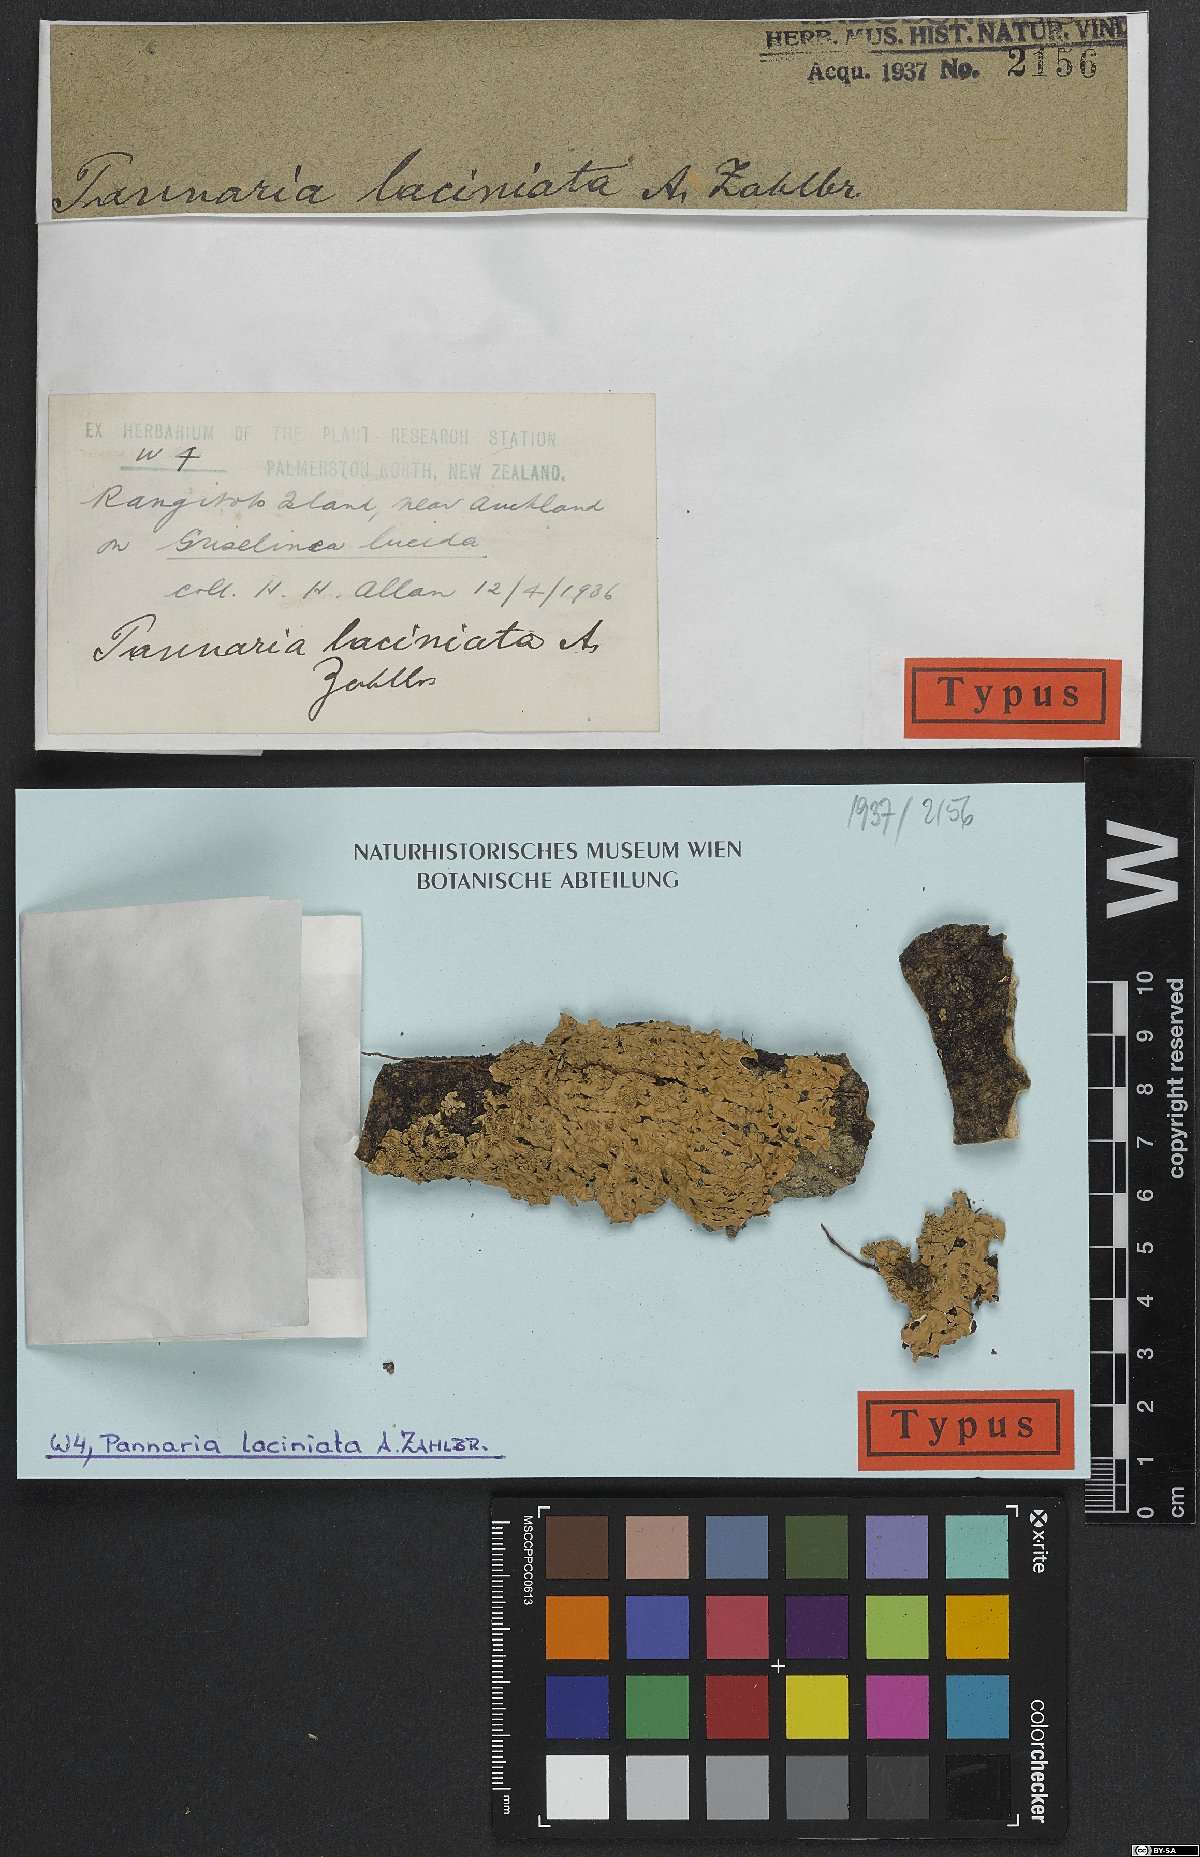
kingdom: Fungi
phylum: Ascomycota
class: Lecanoromycetes
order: Peltigerales
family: Pannariaceae
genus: Pannaria
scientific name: Pannaria
